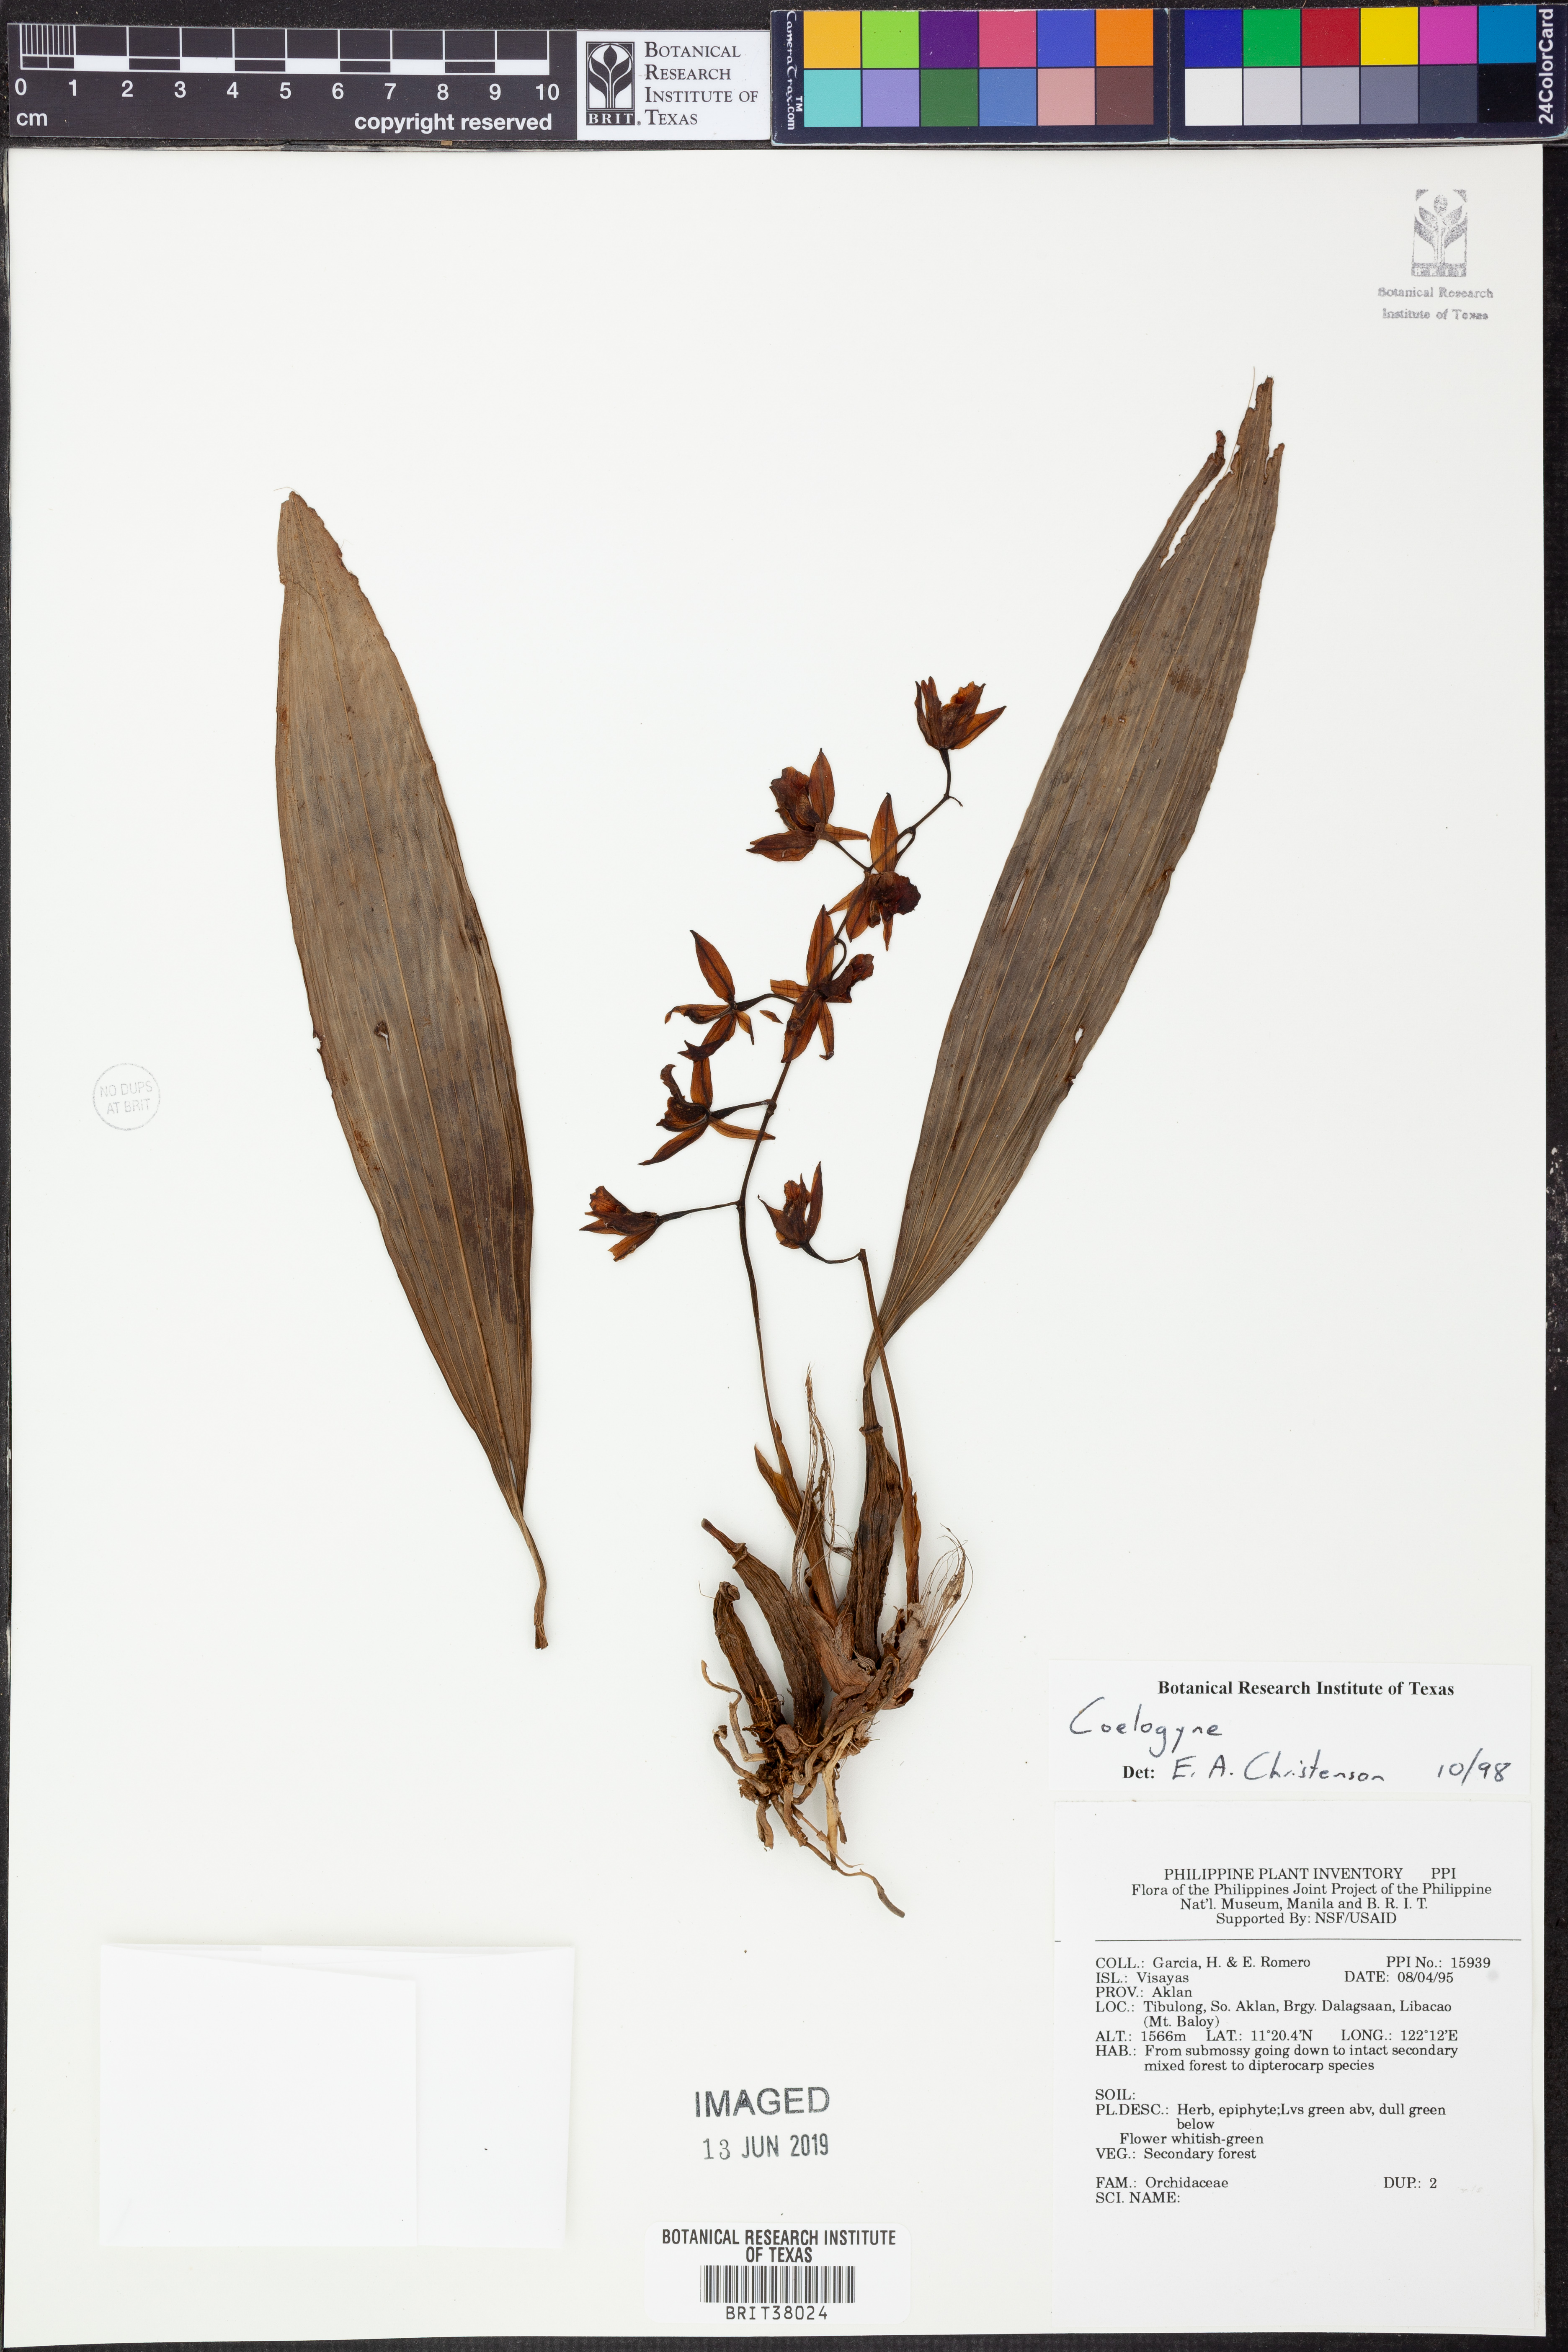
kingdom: Plantae
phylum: Tracheophyta
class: Liliopsida
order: Asparagales
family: Orchidaceae
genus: Coelogyne
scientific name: Coelogyne
